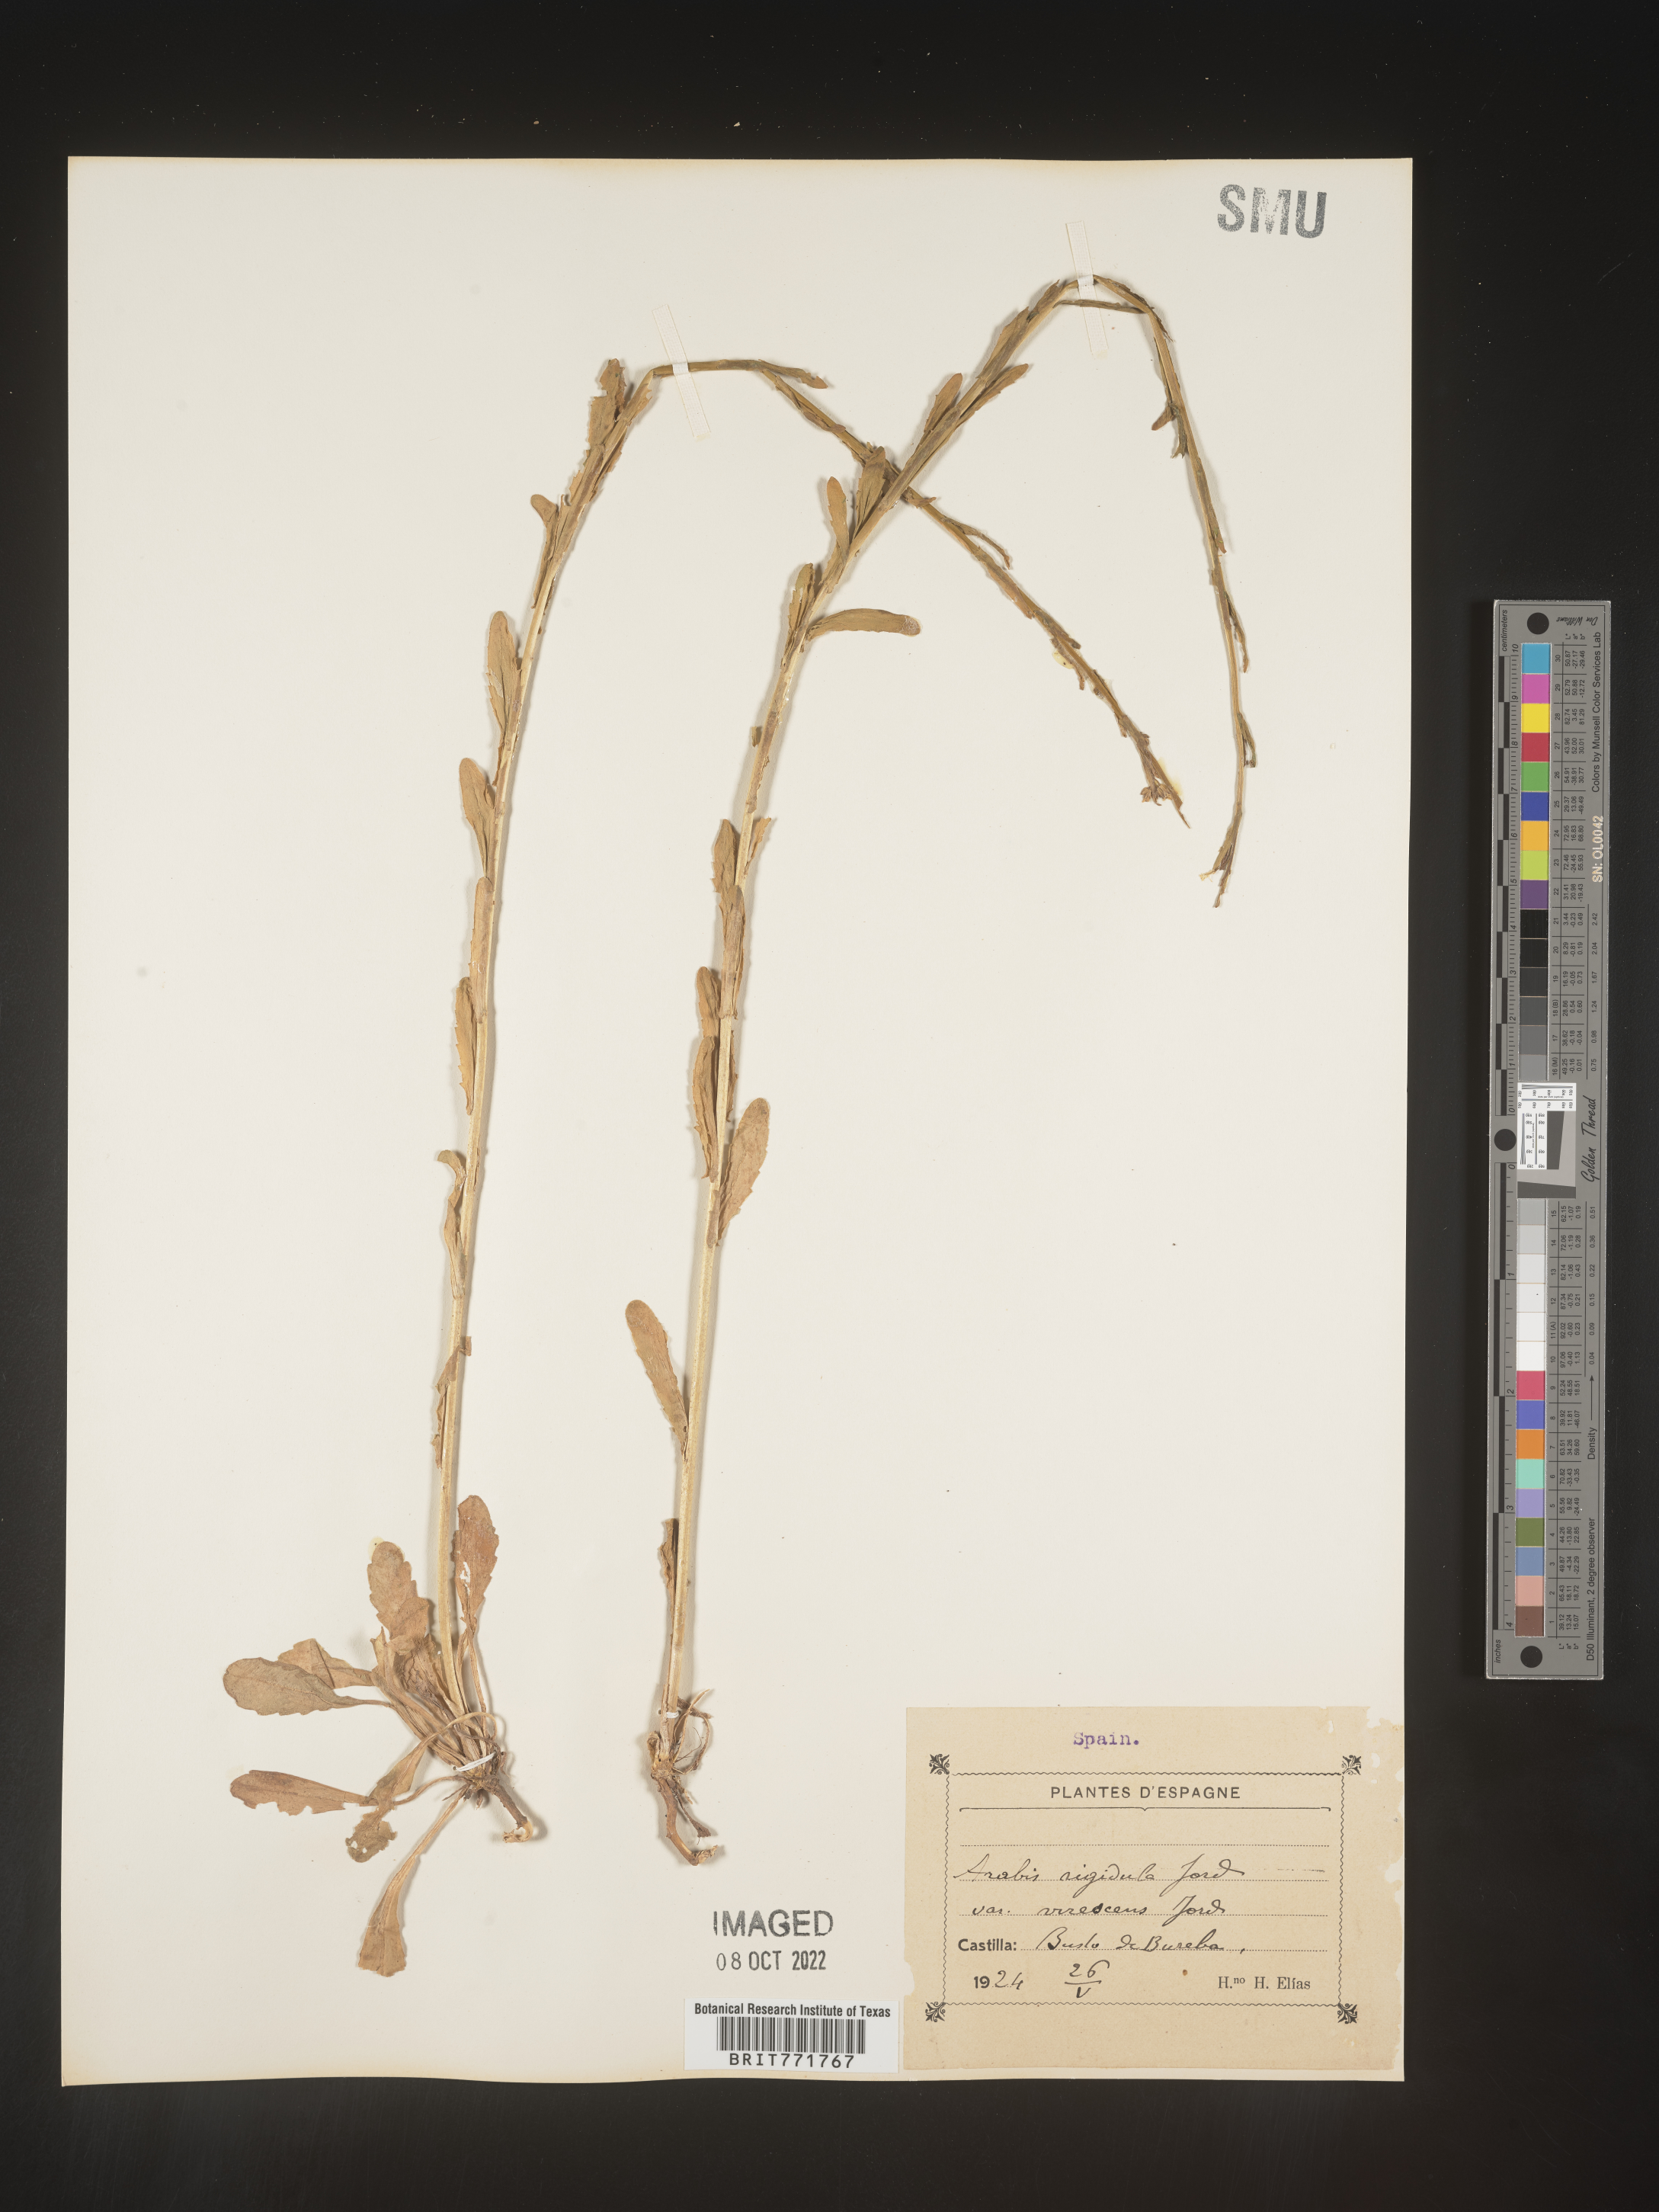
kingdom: Plantae
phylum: Tracheophyta
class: Magnoliopsida
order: Brassicales
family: Brassicaceae
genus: Arabis
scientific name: Arabis
